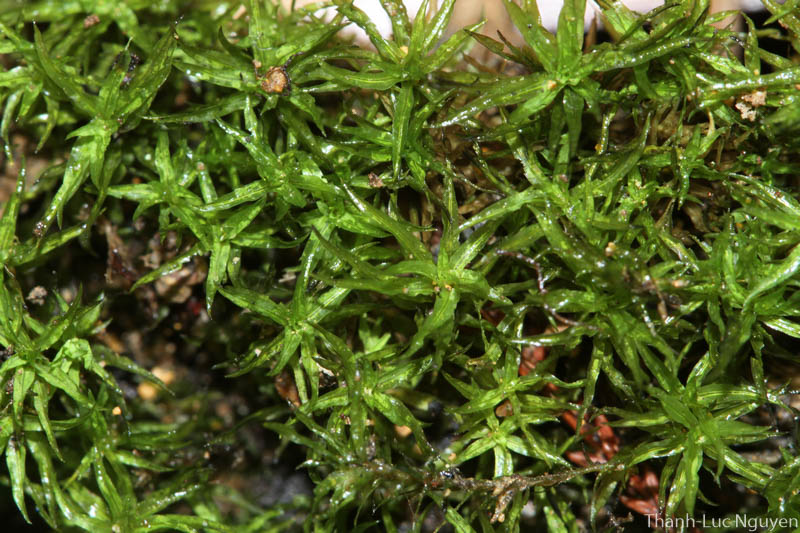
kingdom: Plantae
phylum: Bryophyta
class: Bryopsida
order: Pottiales
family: Pottiaceae
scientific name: Pottiaceae
